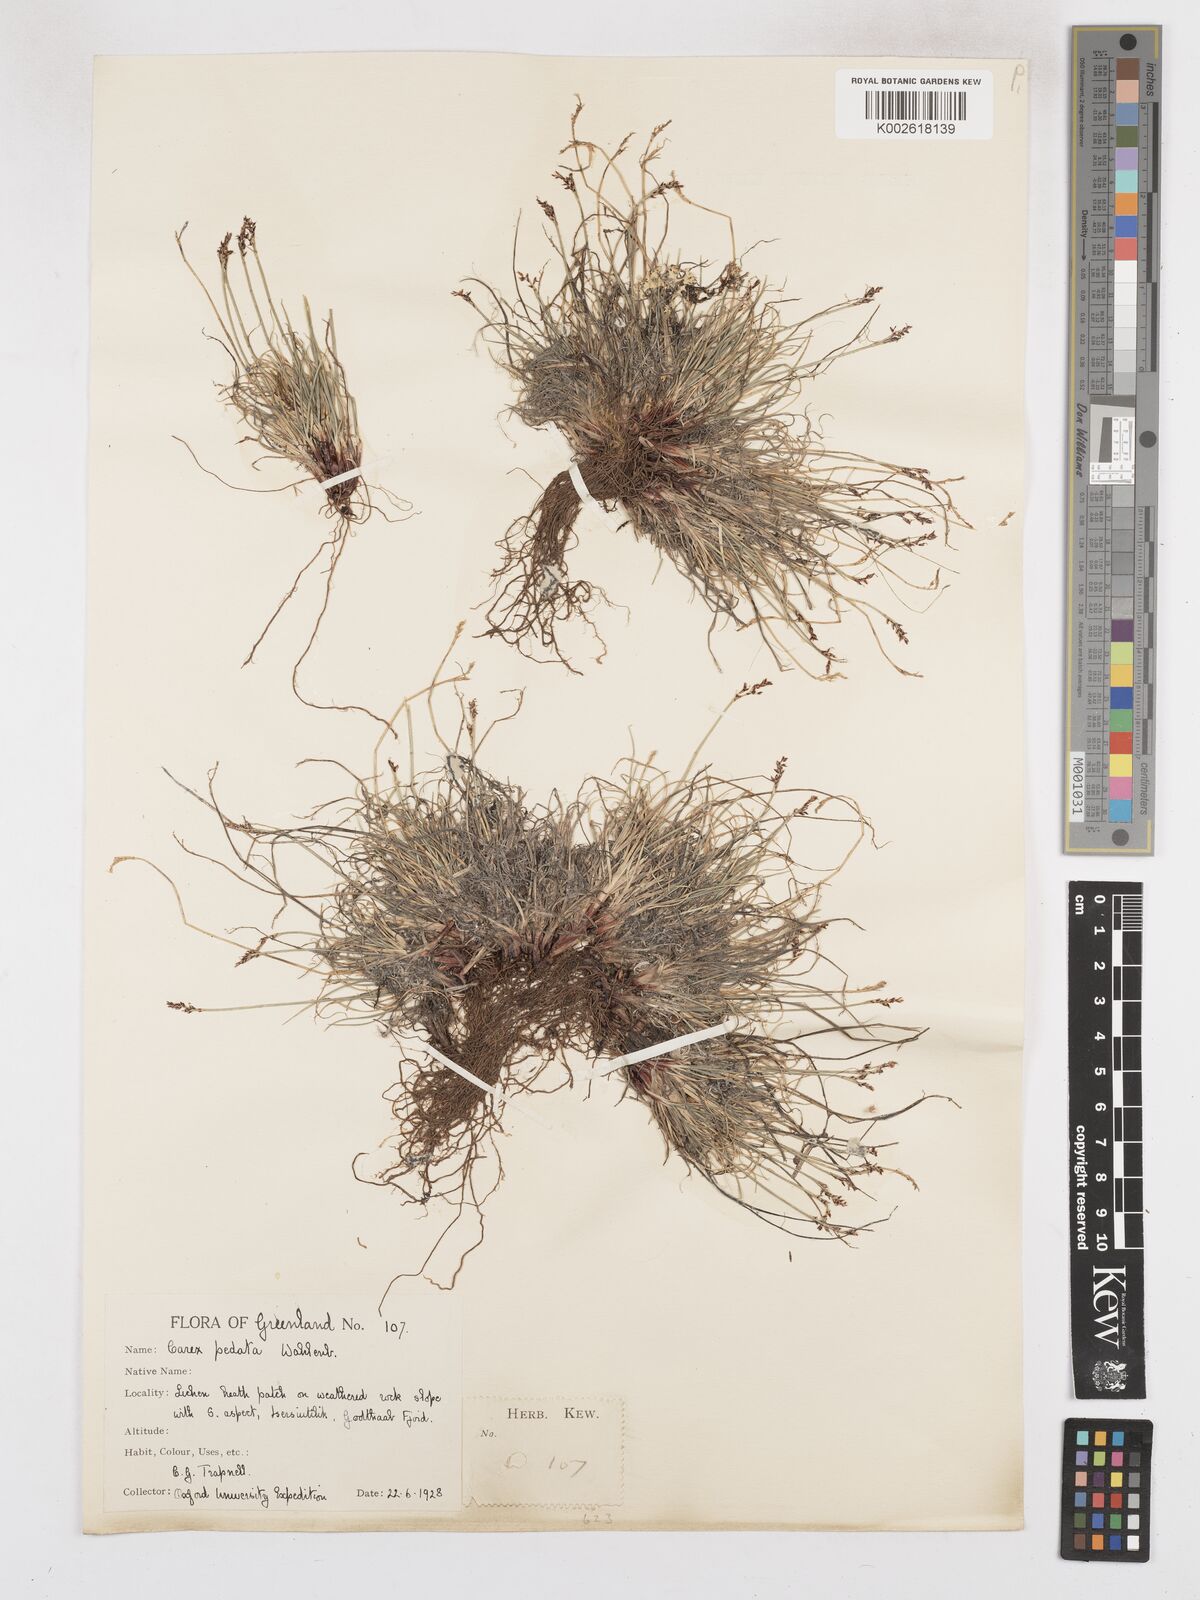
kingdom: Plantae
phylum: Tracheophyta
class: Liliopsida
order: Poales
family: Cyperaceae
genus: Carex
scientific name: Carex glacialis
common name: Newfoundland sedge
